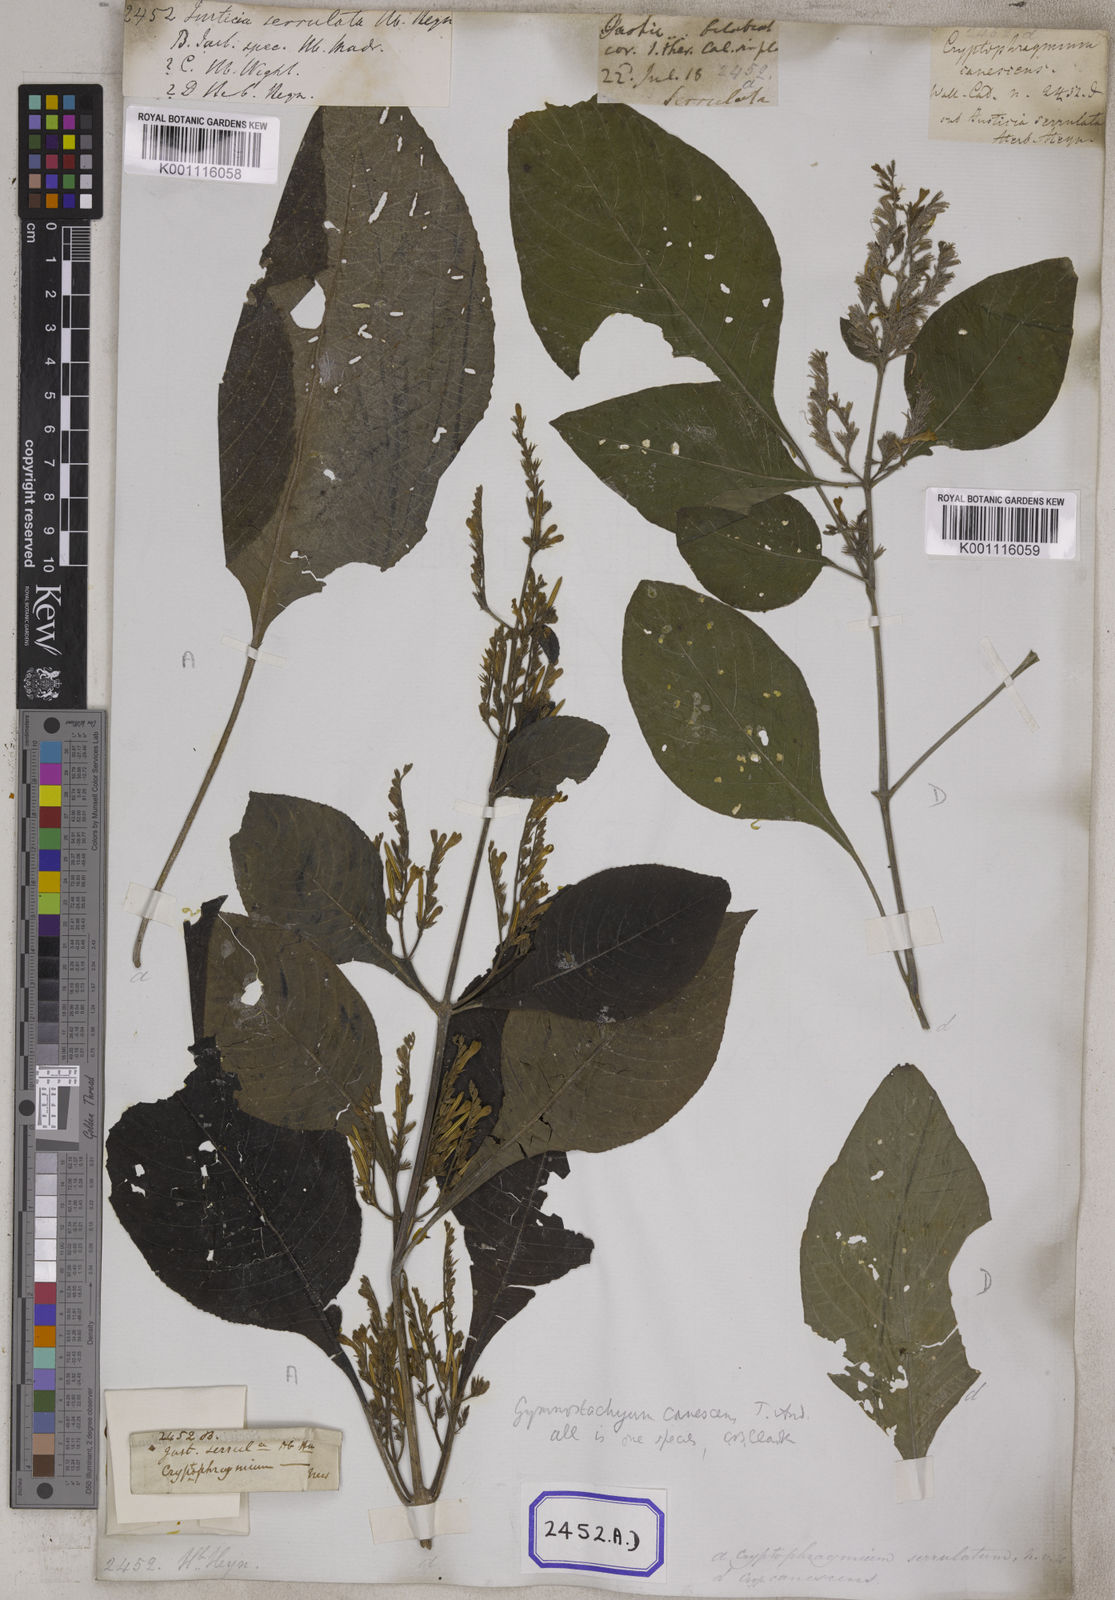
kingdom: Plantae
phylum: Tracheophyta
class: Magnoliopsida
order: Lamiales
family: Acanthaceae
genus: Gymnostachyum
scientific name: Gymnostachyum pubescens
